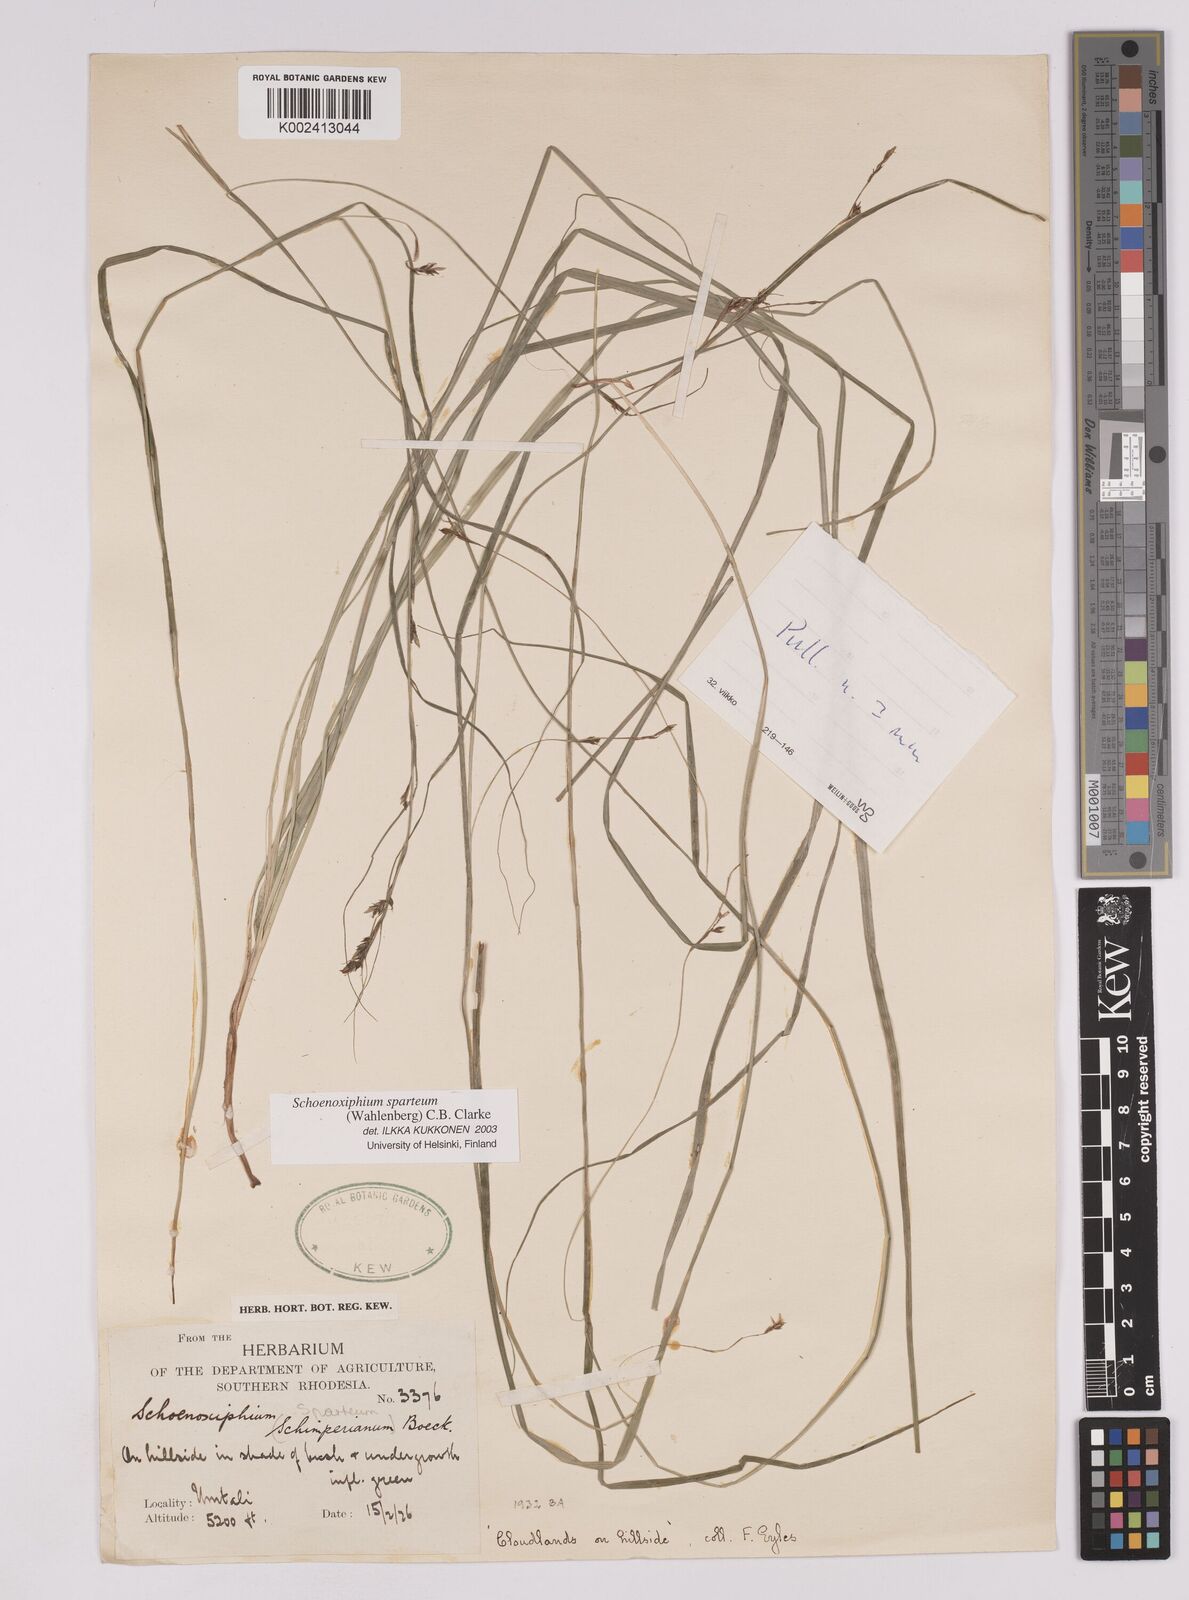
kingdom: Plantae
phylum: Tracheophyta
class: Liliopsida
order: Poales
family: Cyperaceae
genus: Carex
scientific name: Carex spartea
